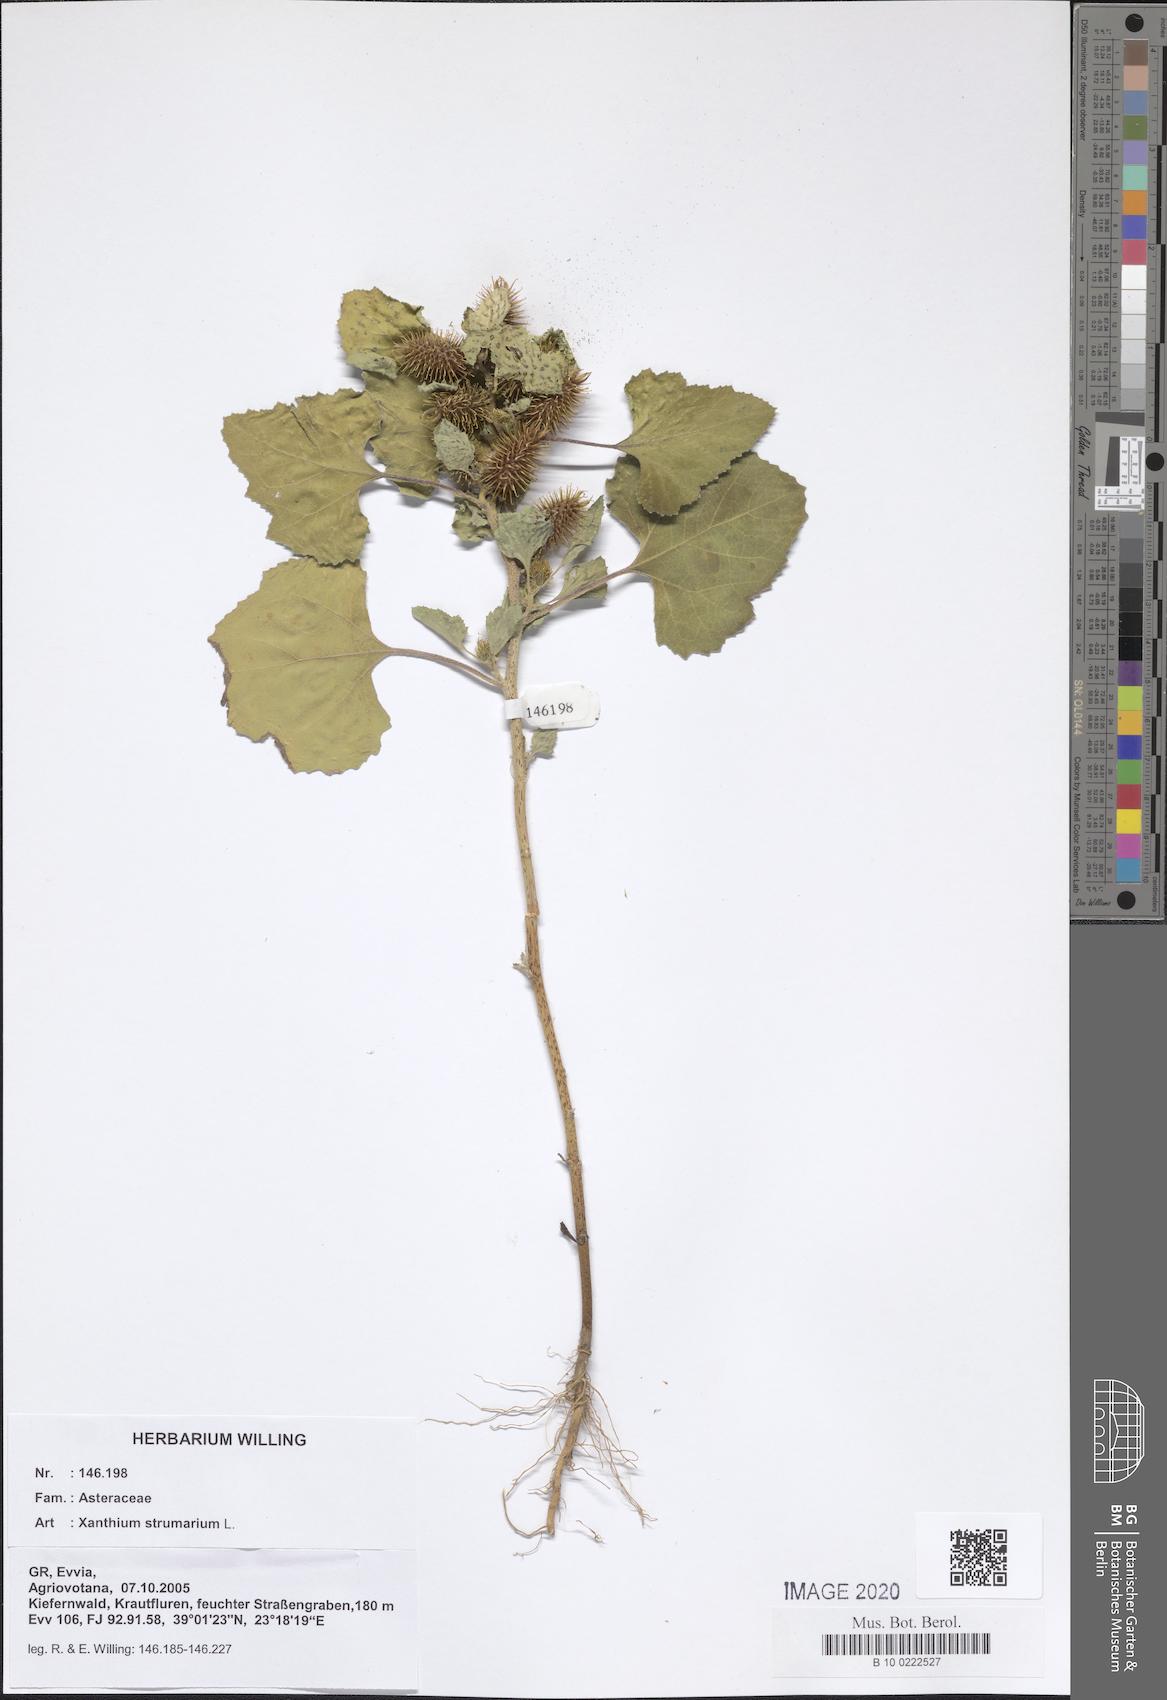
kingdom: Plantae
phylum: Tracheophyta
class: Magnoliopsida
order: Asterales
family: Asteraceae
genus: Xanthium
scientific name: Xanthium strumarium
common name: Rough cocklebur
